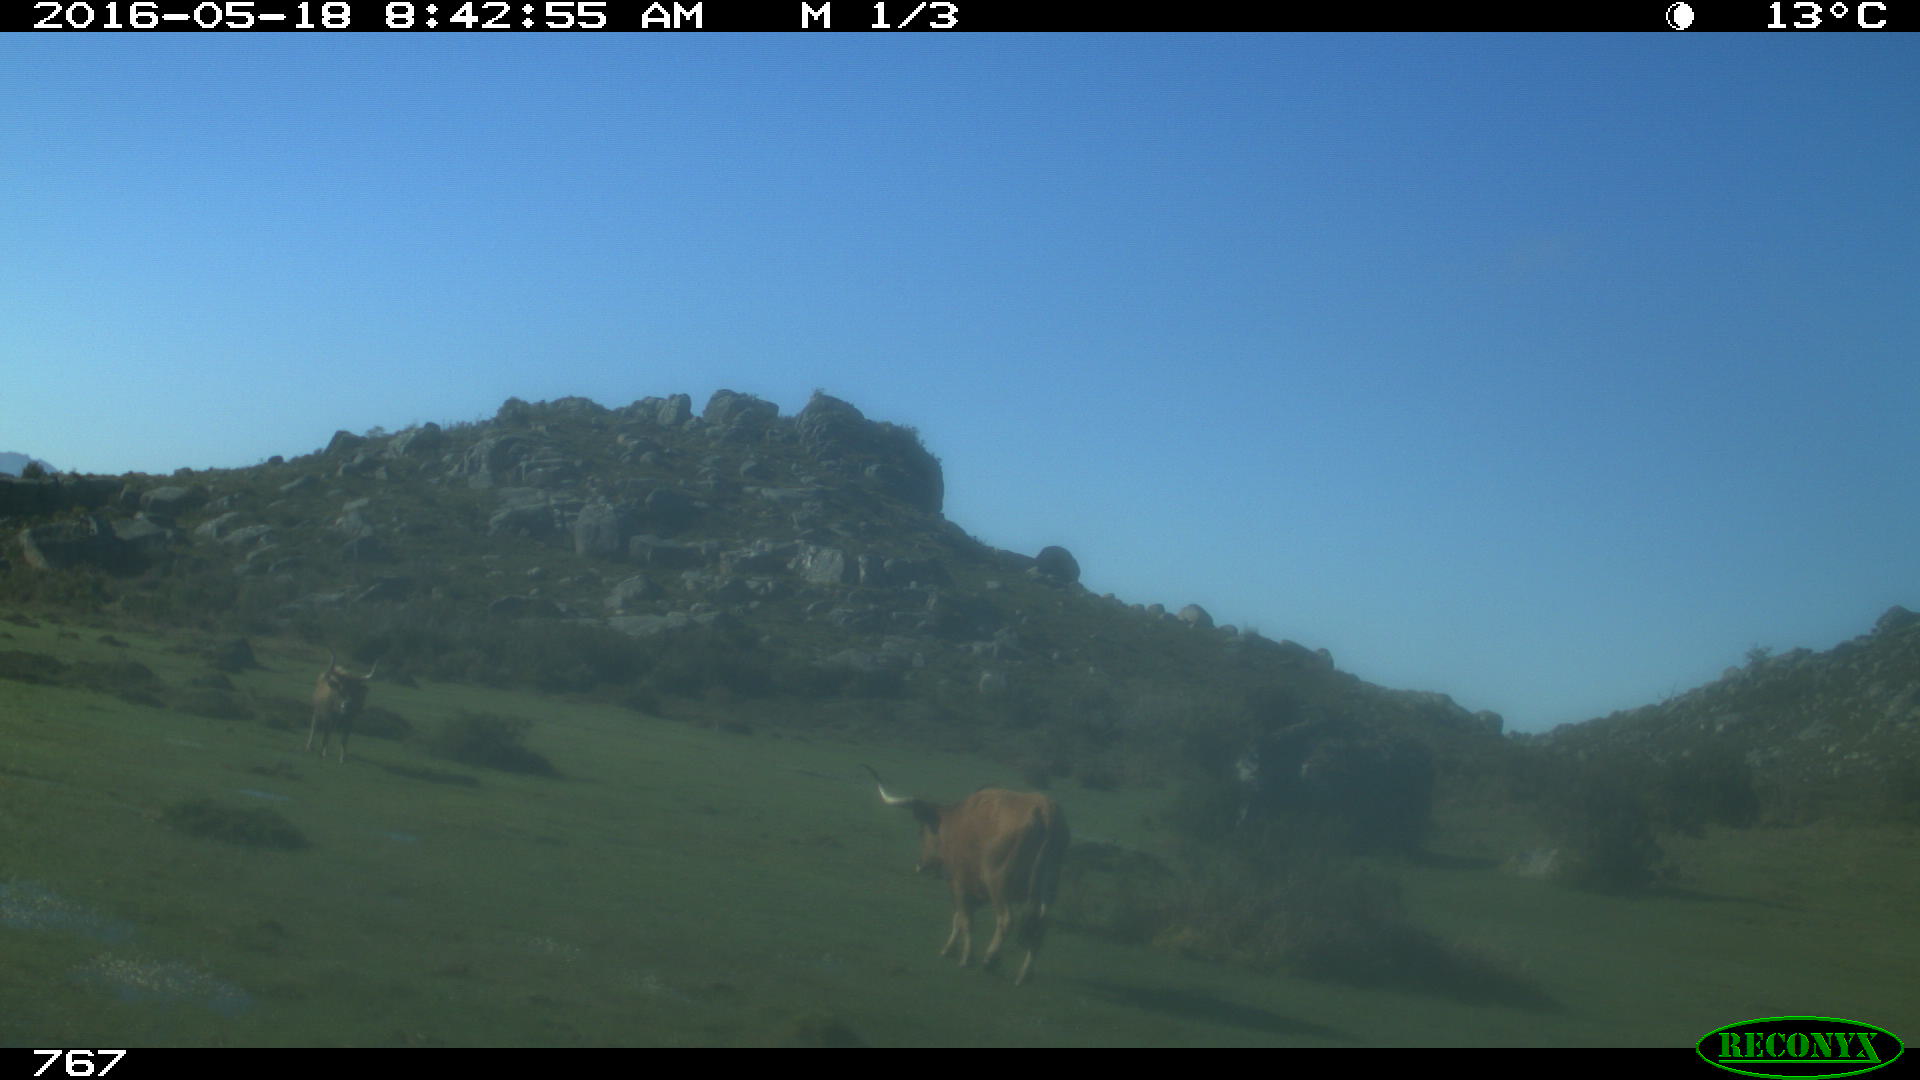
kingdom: Animalia
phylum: Chordata
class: Mammalia
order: Artiodactyla
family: Bovidae
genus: Bos
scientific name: Bos taurus
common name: Domesticated cattle
